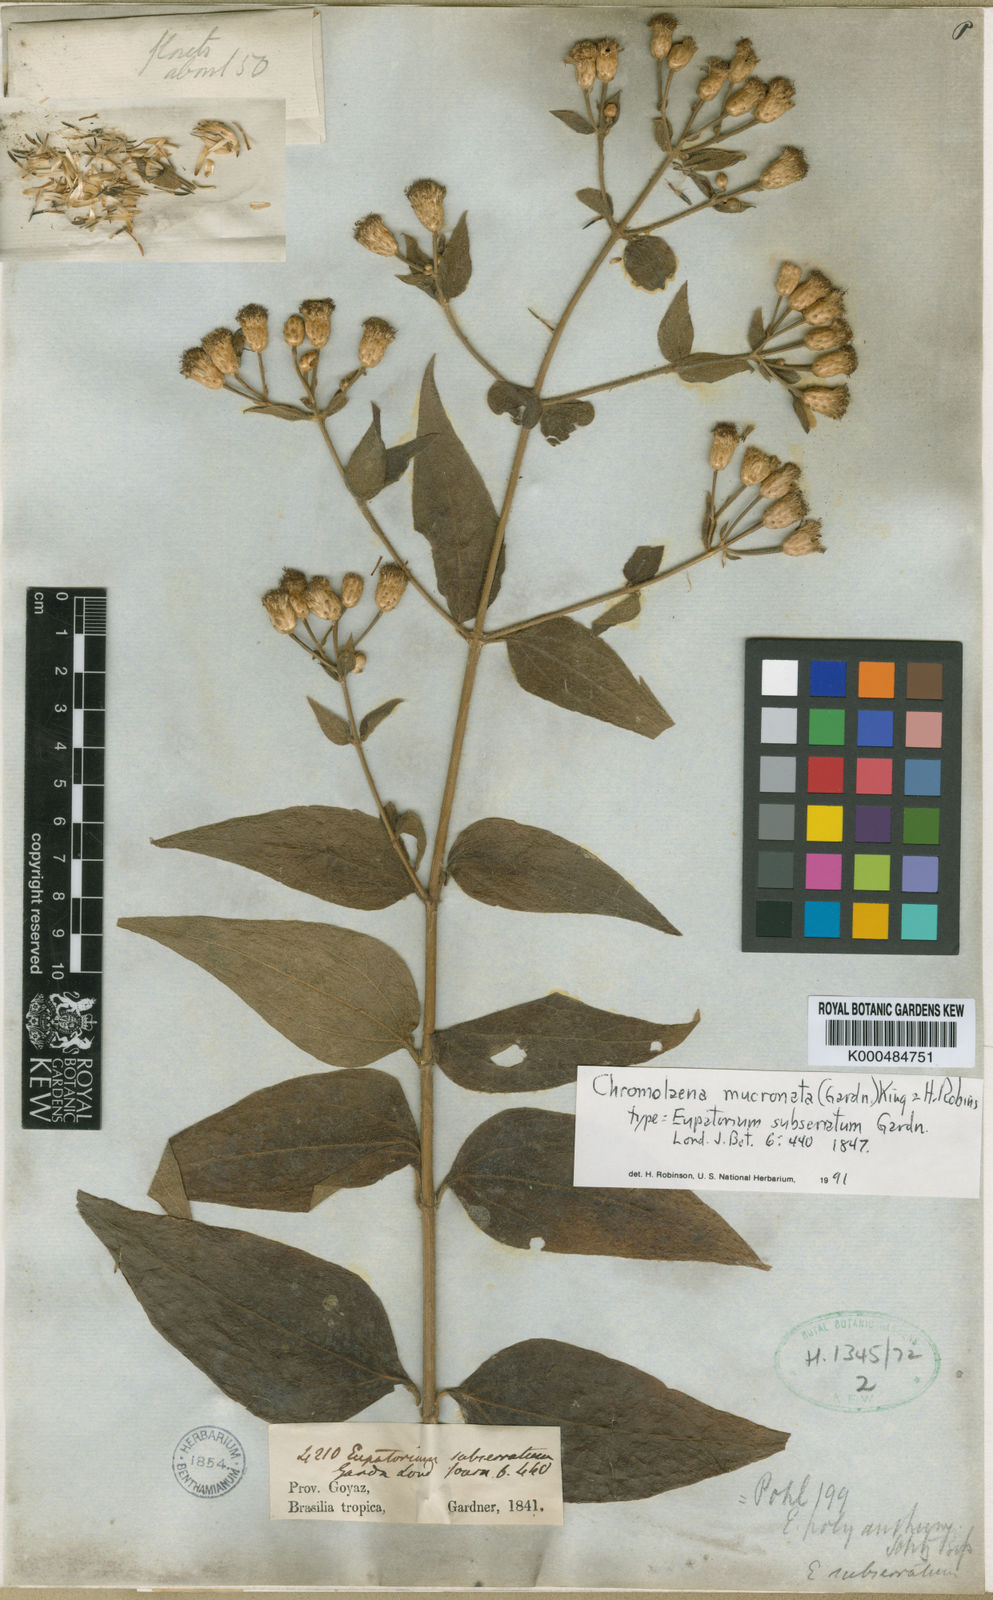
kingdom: Plantae
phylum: Tracheophyta
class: Magnoliopsida
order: Asterales
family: Asteraceae
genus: Chromolaena
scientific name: Chromolaena mucronata
